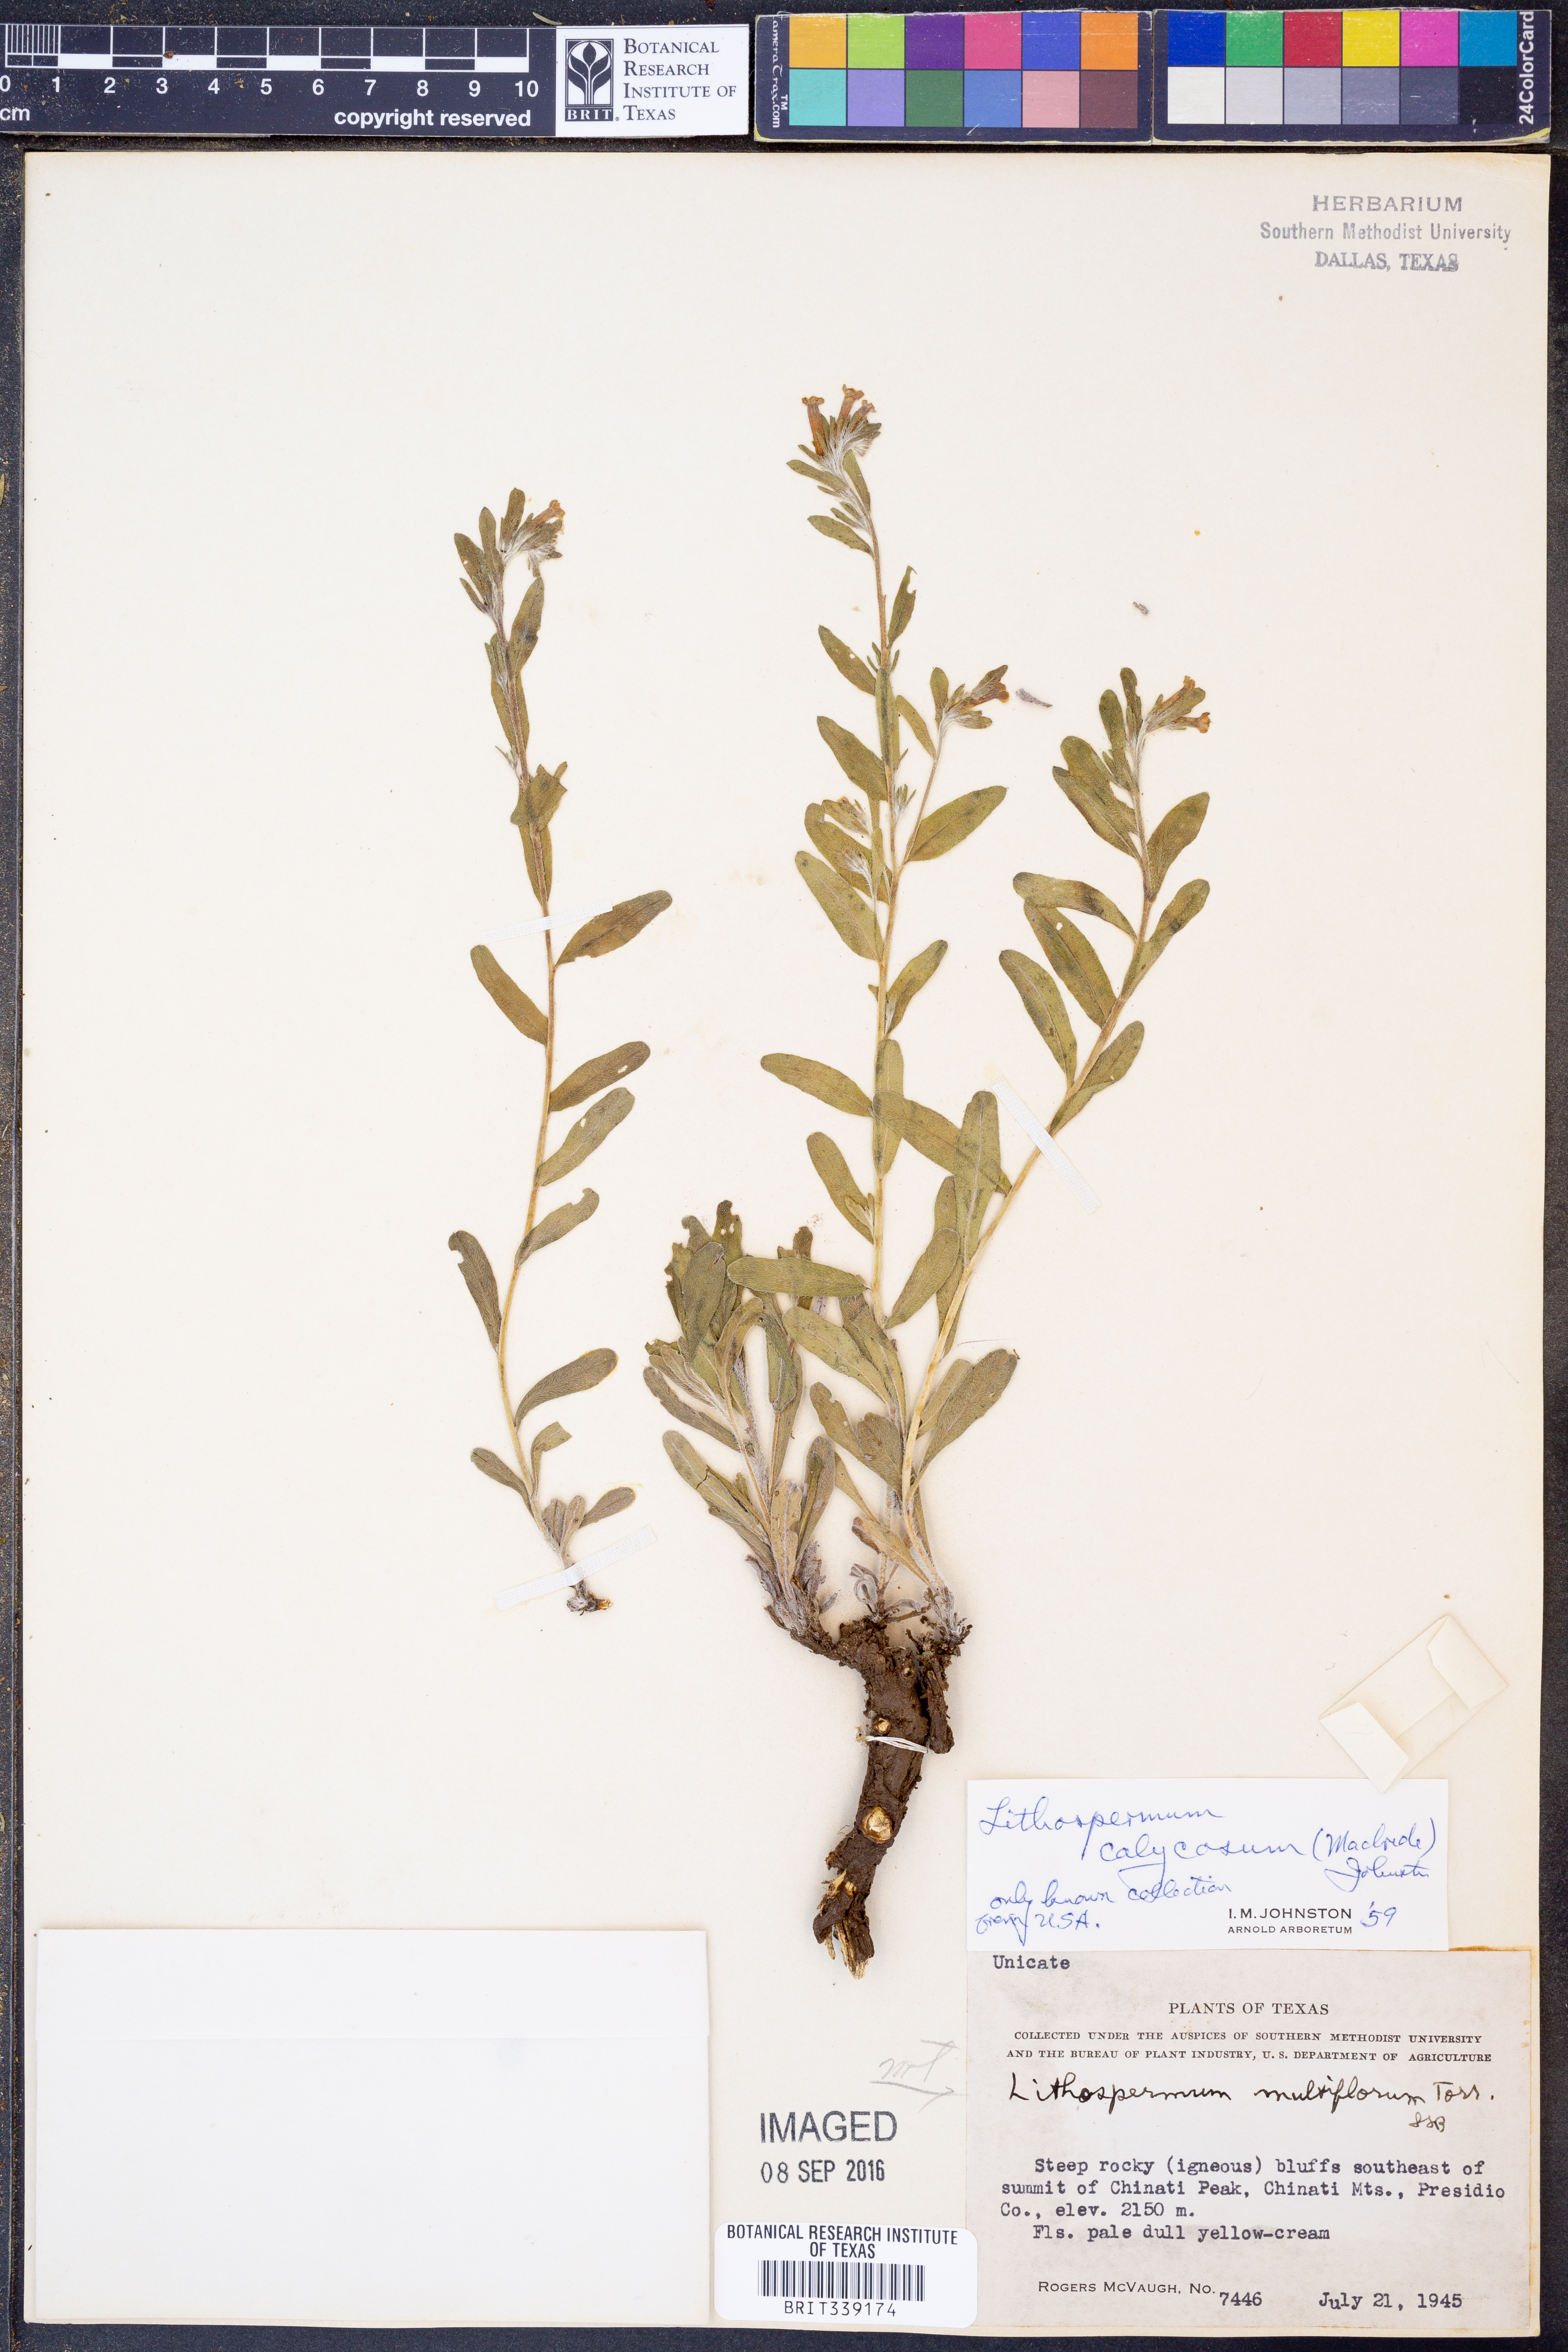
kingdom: Plantae
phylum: Tracheophyta
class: Magnoliopsida
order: Boraginales
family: Boraginaceae
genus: Lithospermum
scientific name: Lithospermum calycosum
